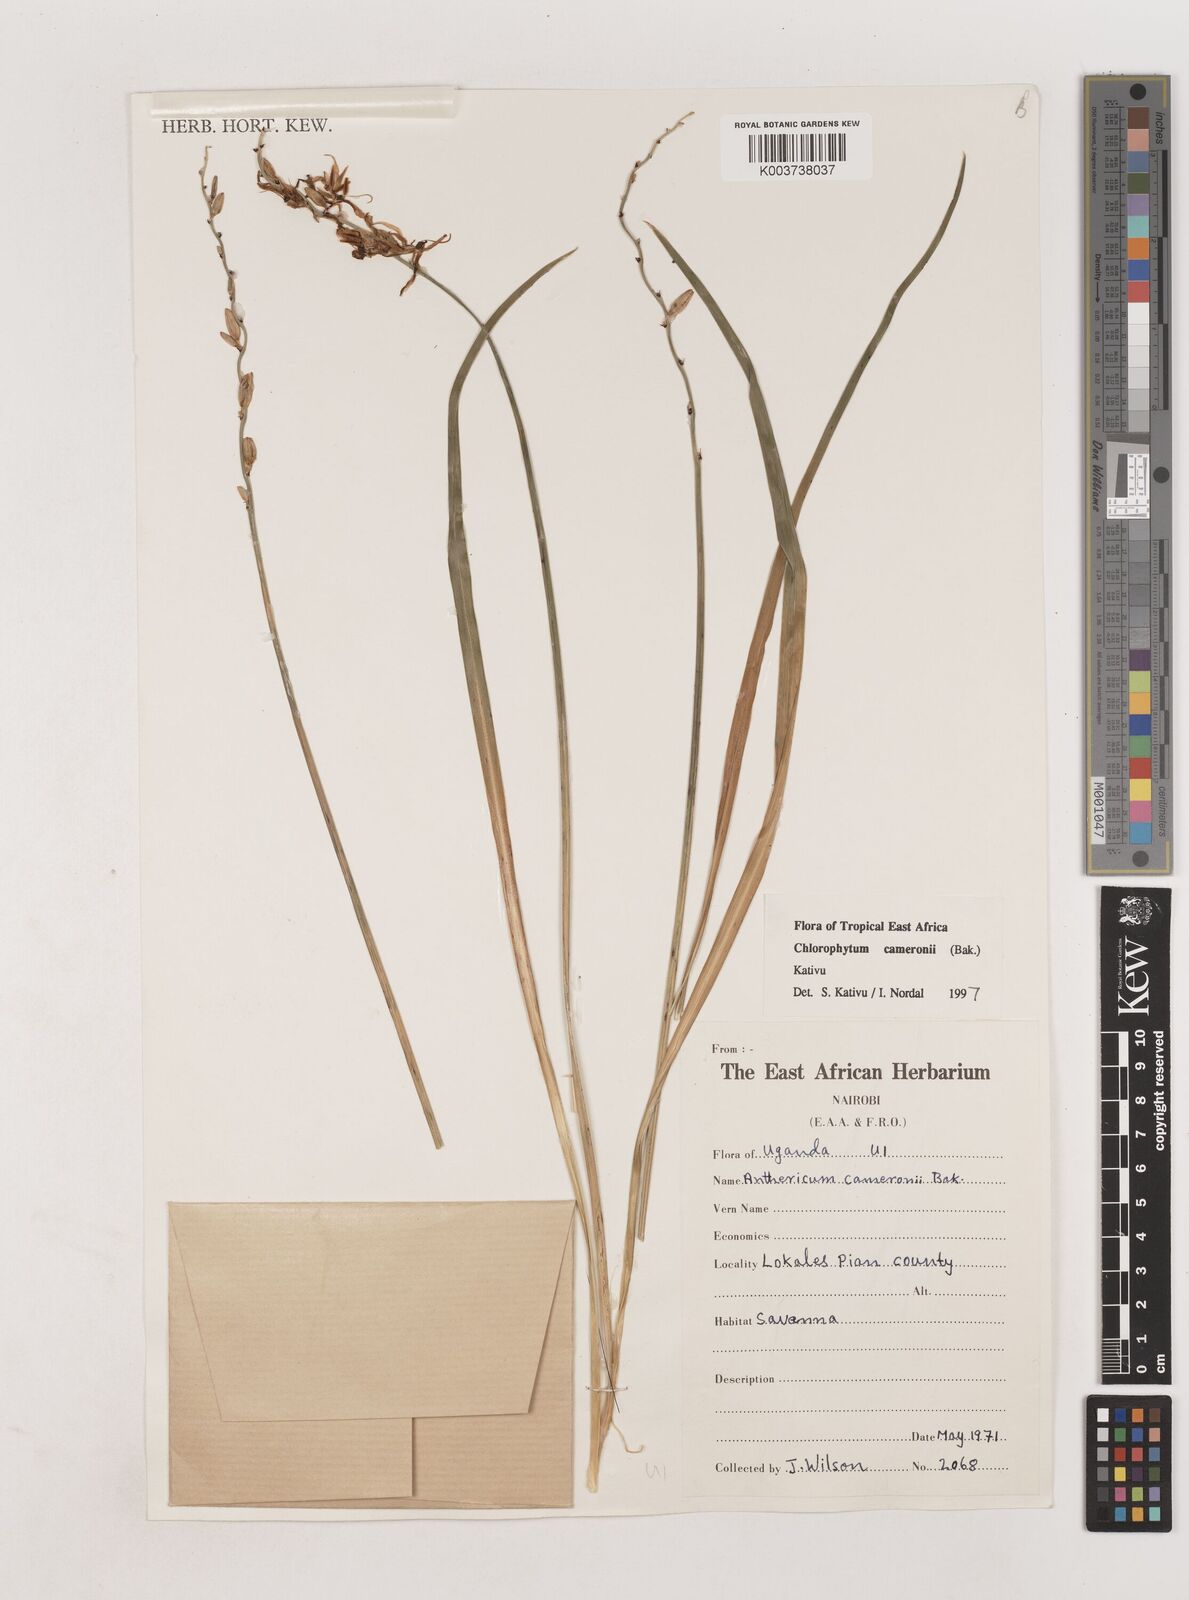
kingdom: Plantae
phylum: Tracheophyta
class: Liliopsida
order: Asparagales
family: Asparagaceae
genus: Chlorophytum
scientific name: Chlorophytum cameronii
